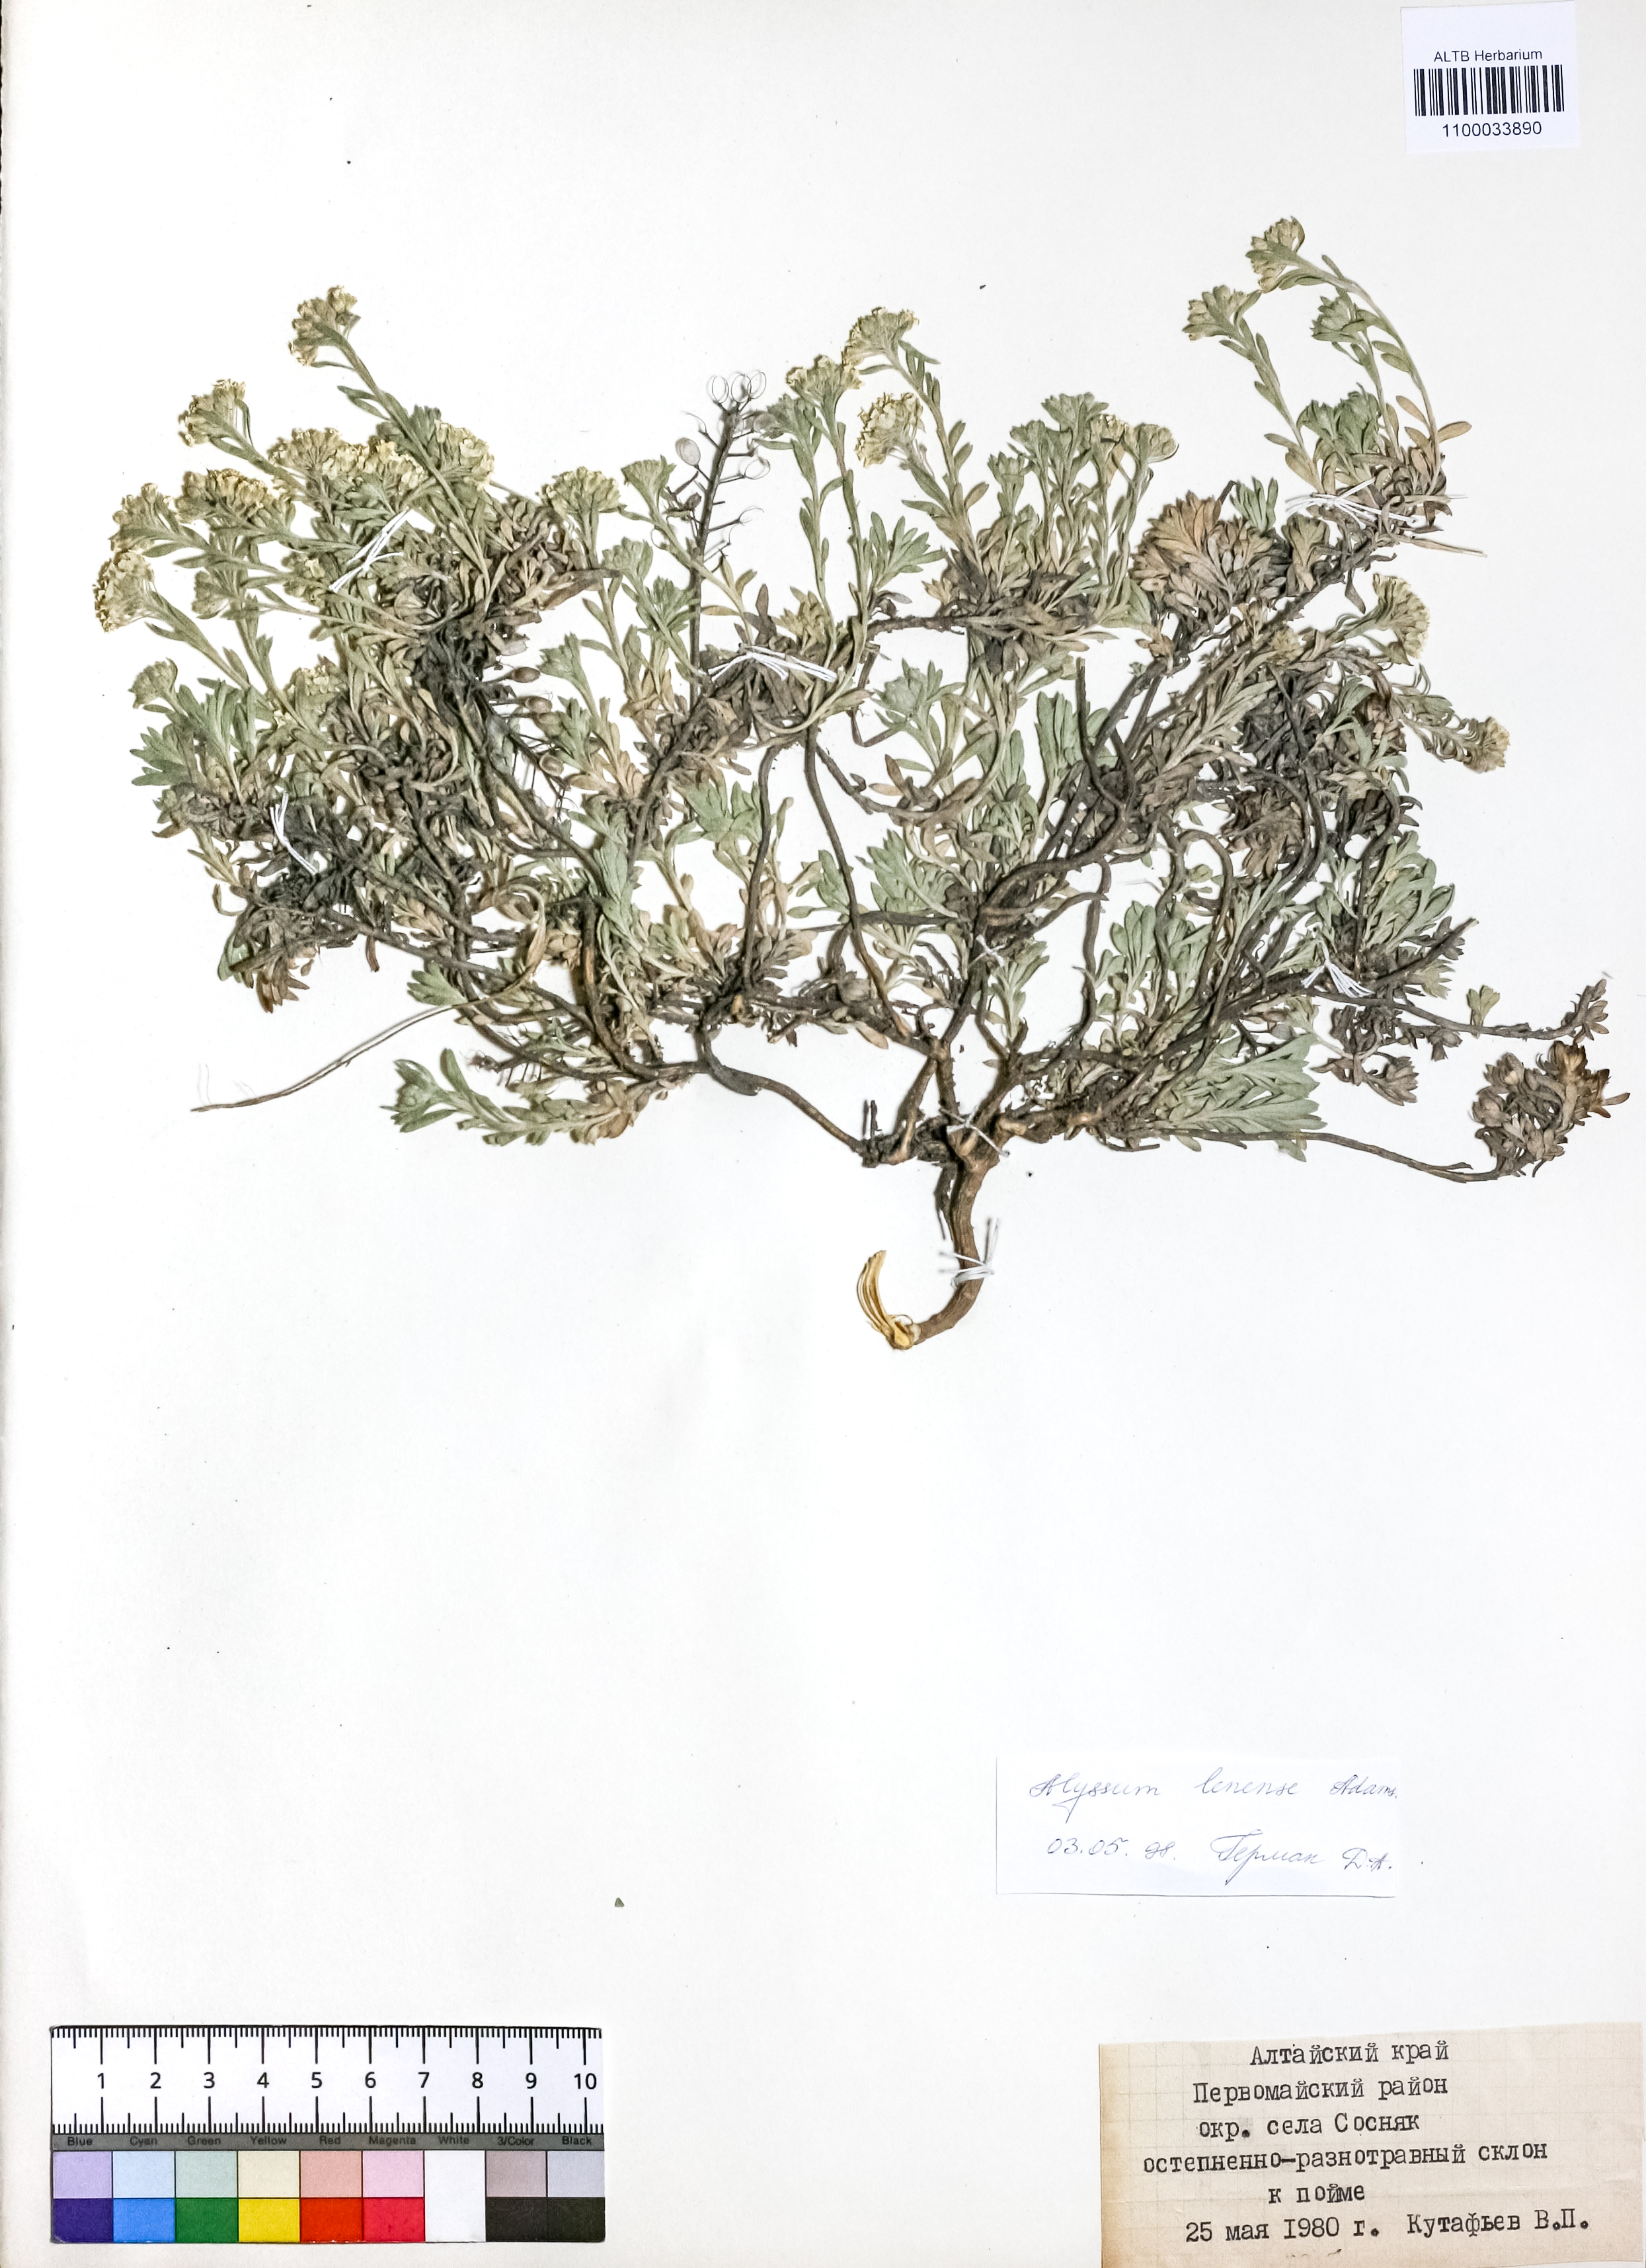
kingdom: Plantae
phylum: Tracheophyta
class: Magnoliopsida
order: Brassicales
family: Brassicaceae
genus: Alyssum
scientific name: Alyssum lenense
